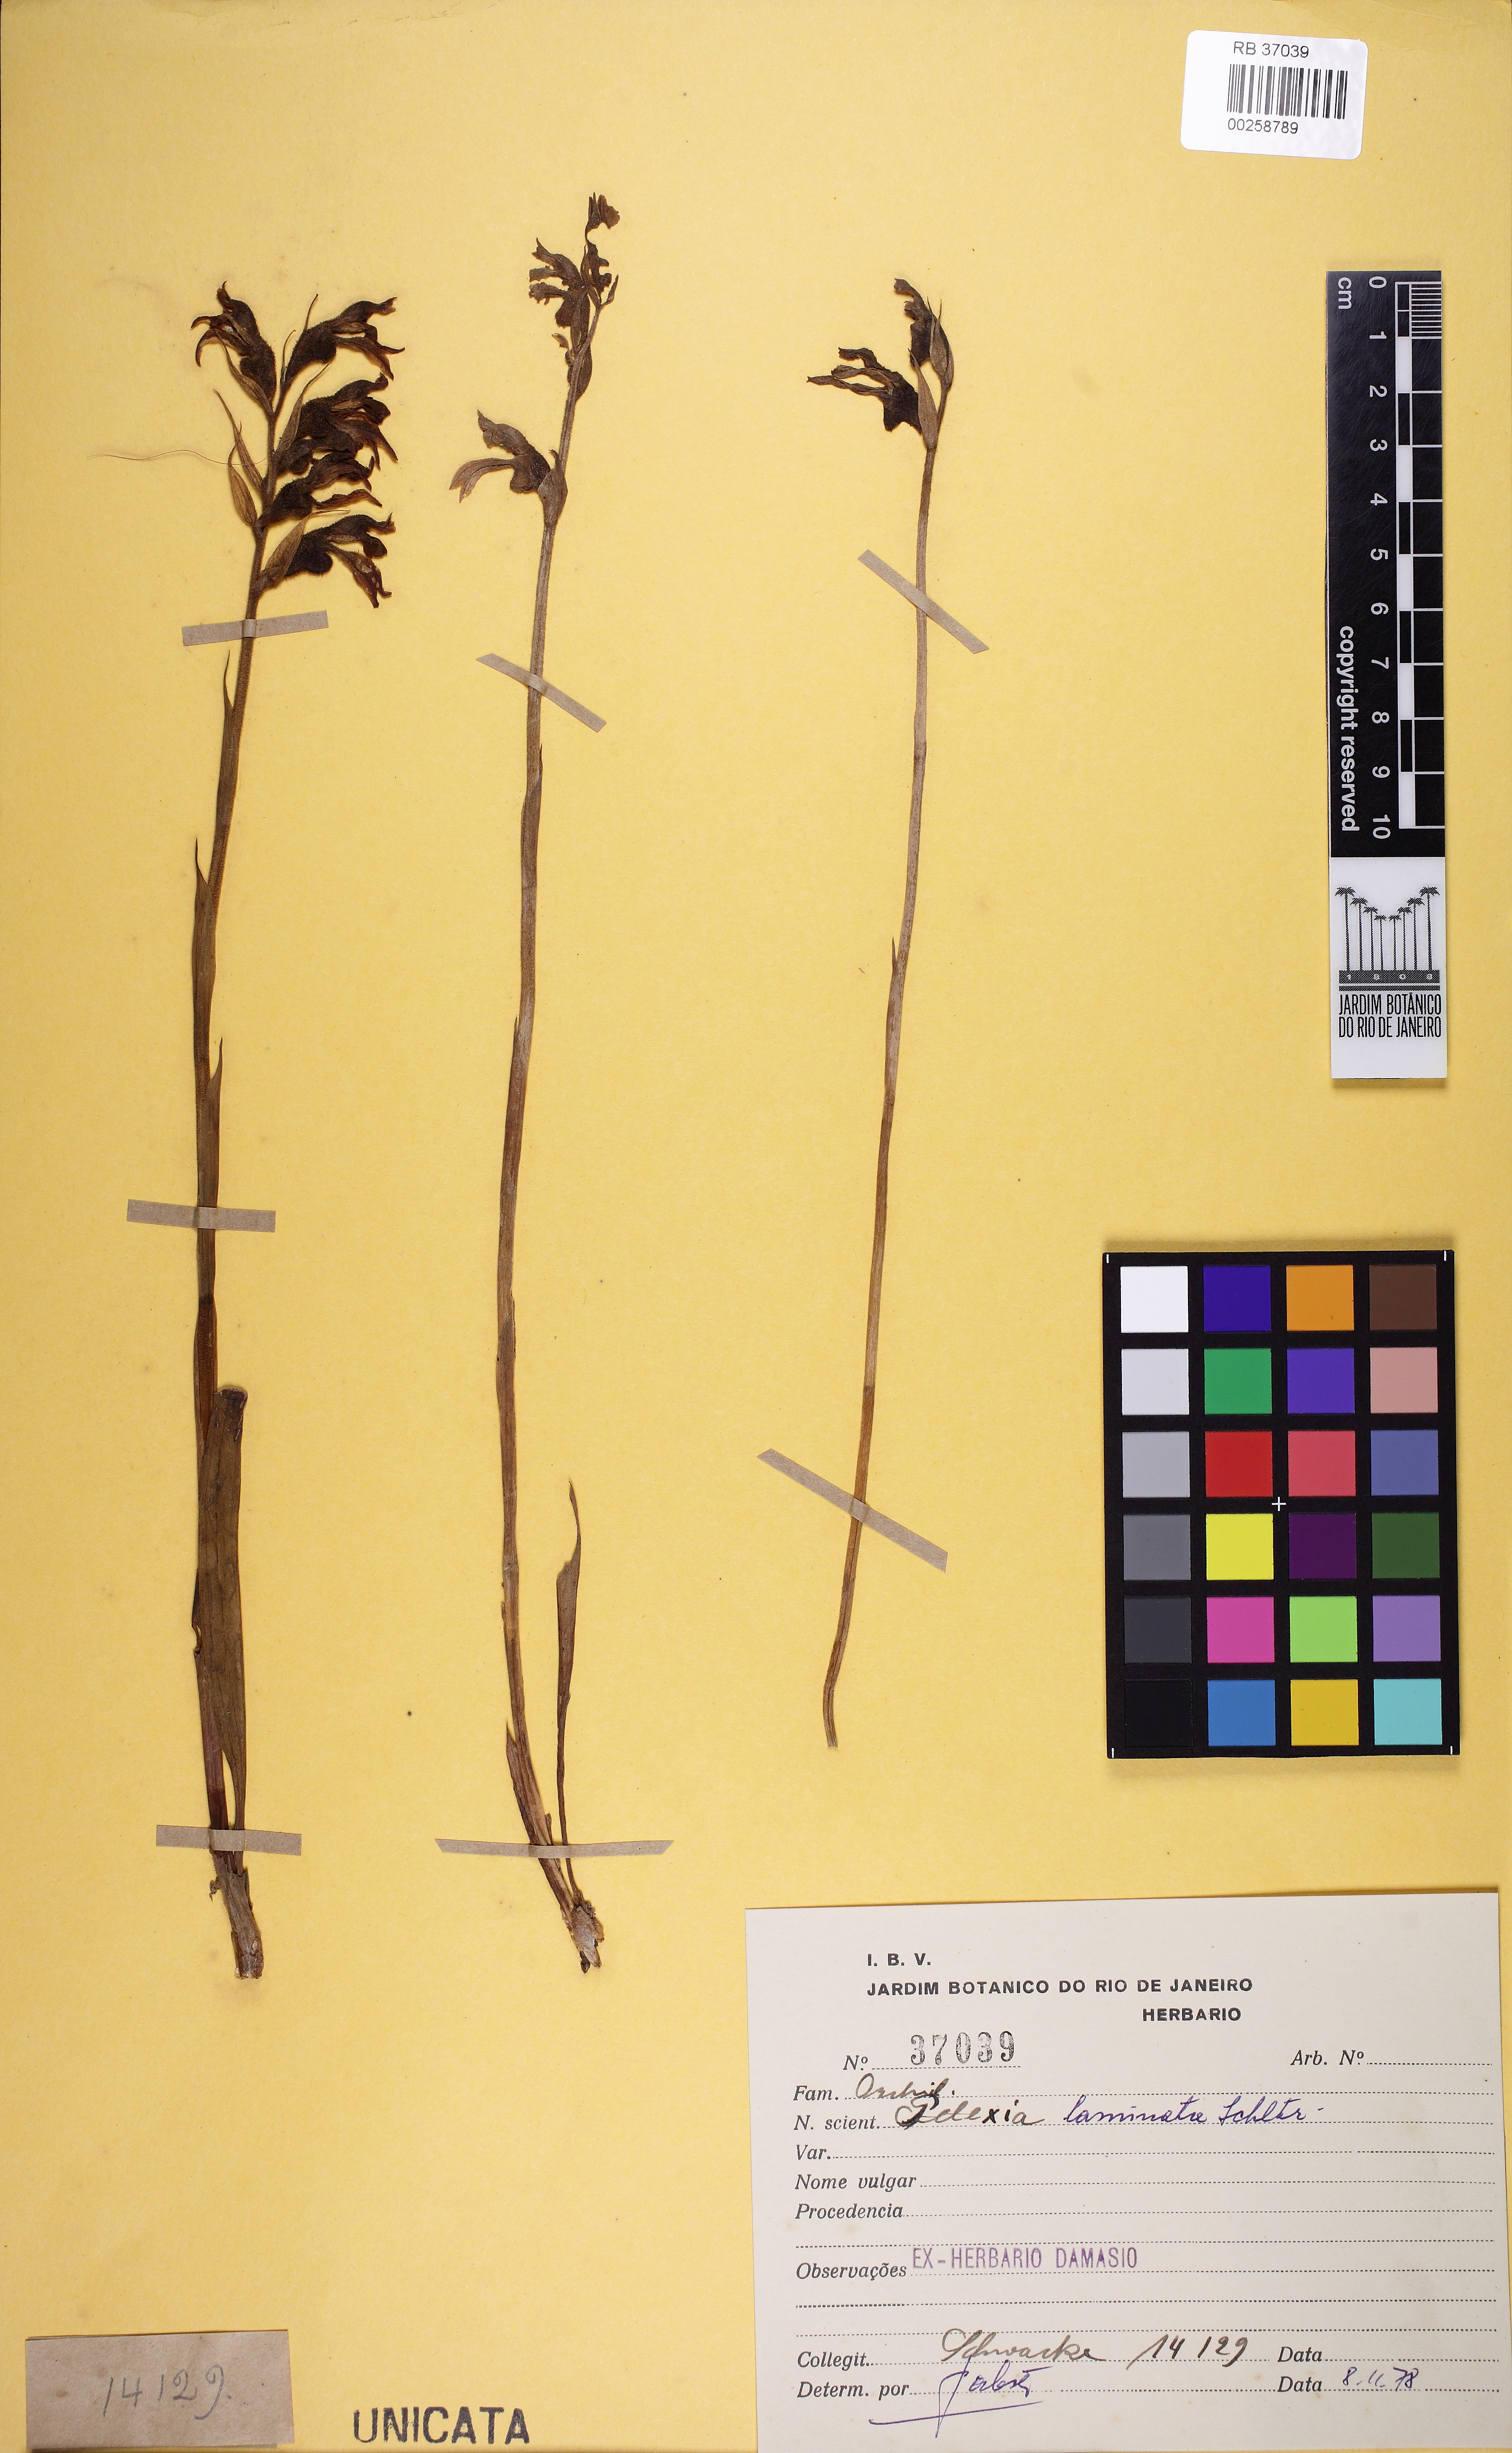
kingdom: Plantae
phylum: Tracheophyta
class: Liliopsida
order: Asparagales
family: Orchidaceae
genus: Pelexia
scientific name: Pelexia laminata
